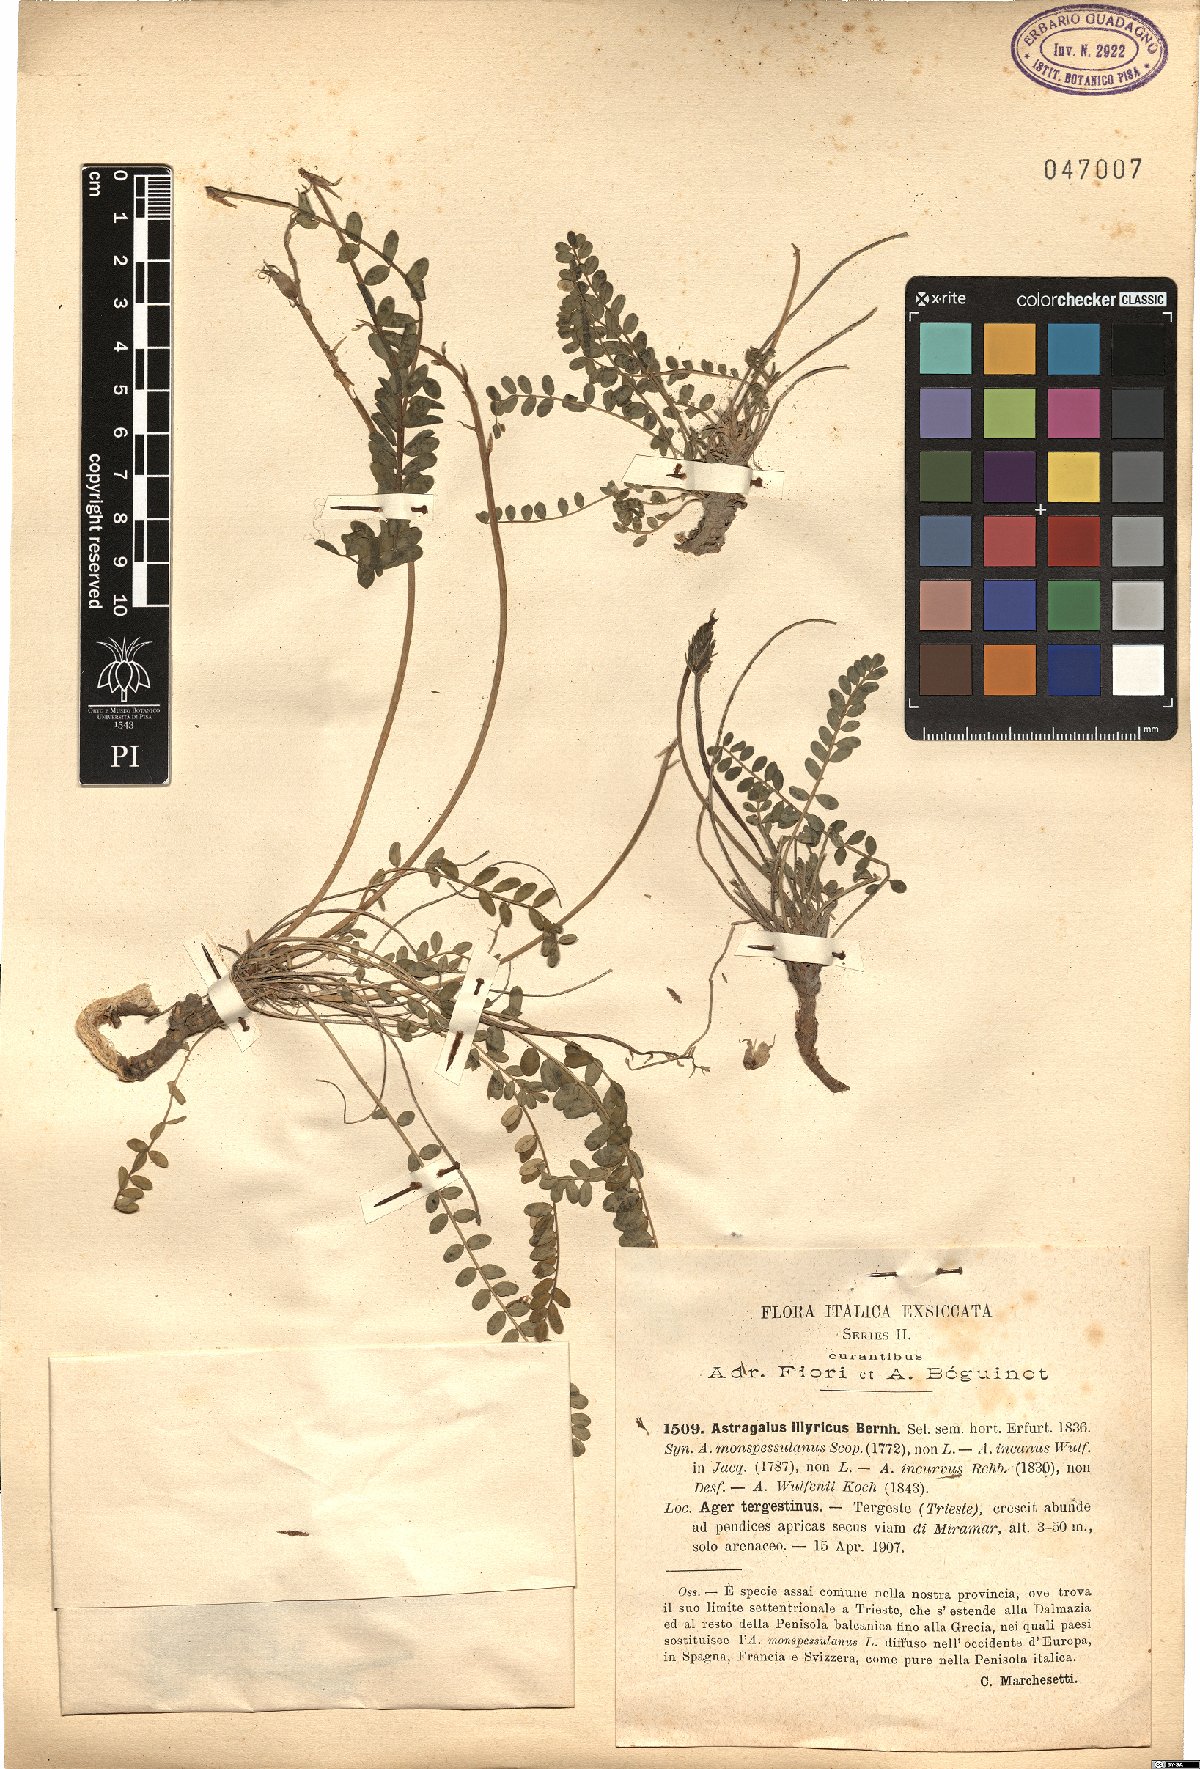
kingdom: Plantae
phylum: Tracheophyta
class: Magnoliopsida
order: Fabales
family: Fabaceae
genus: Astragalus
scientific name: Astragalus monspessulanus
